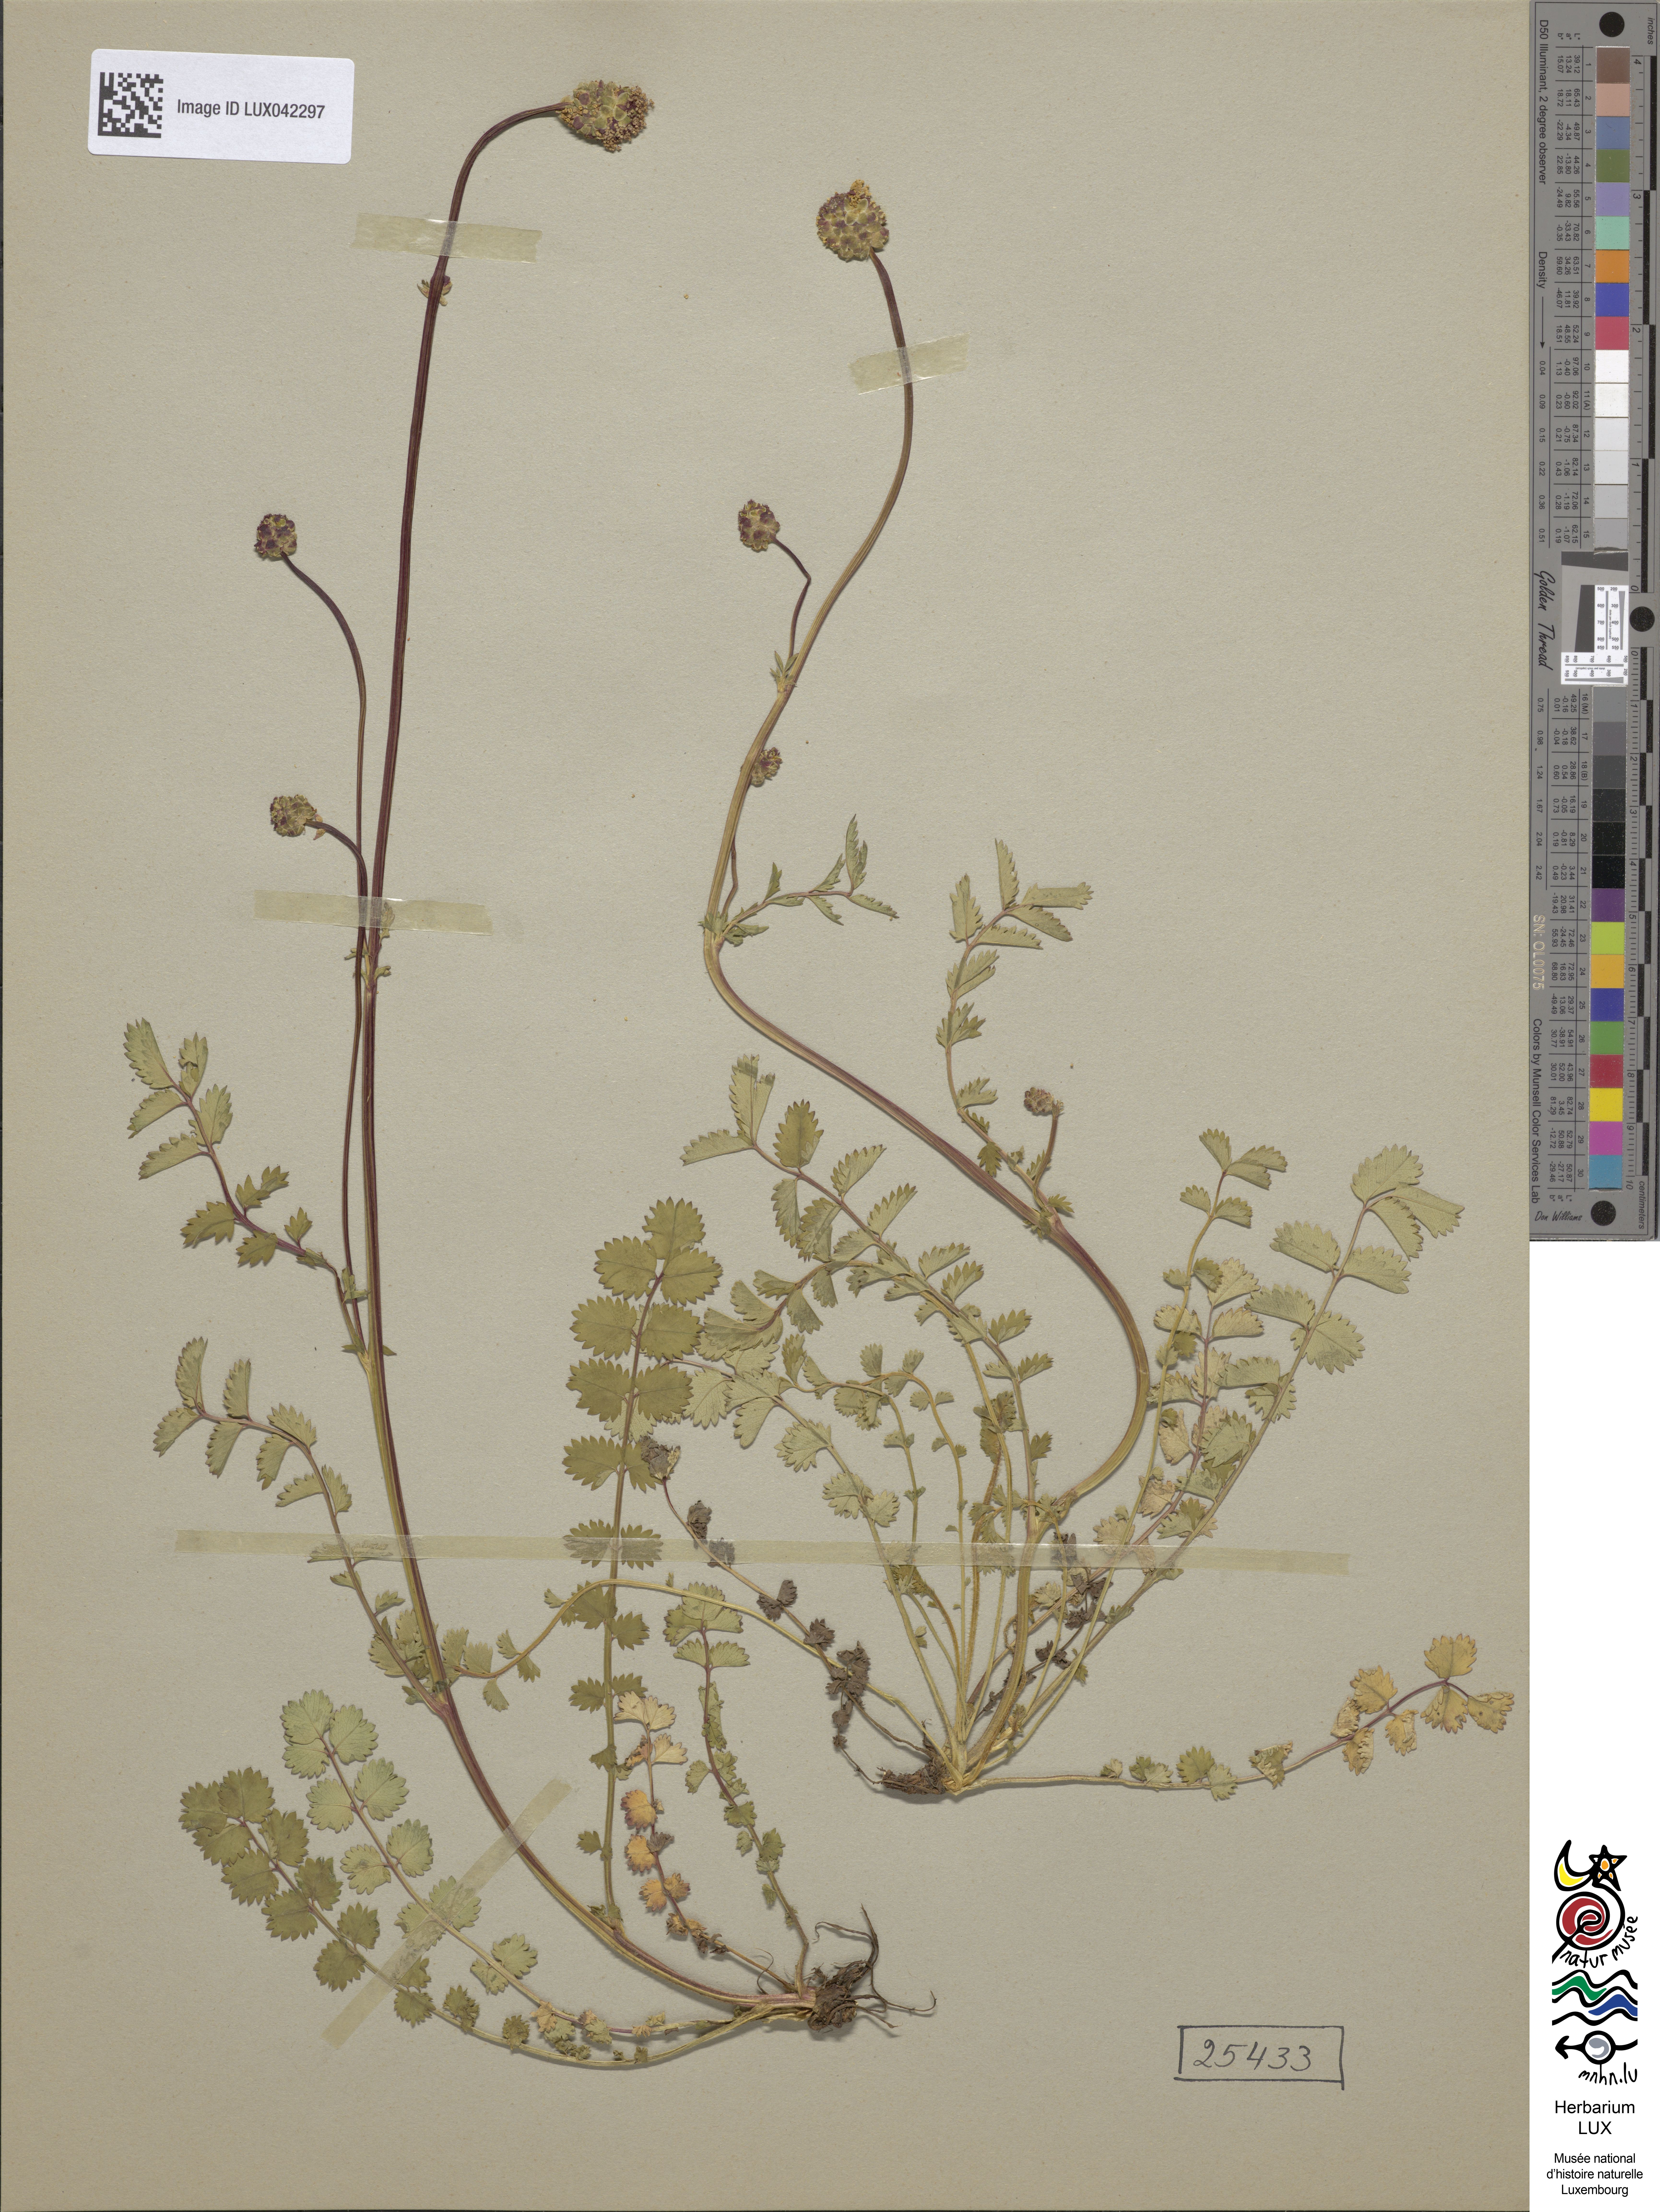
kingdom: Plantae
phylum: Tracheophyta
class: Magnoliopsida
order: Rosales
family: Rosaceae
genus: Poterium
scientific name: Poterium sanguisorba
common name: Salad burnet
